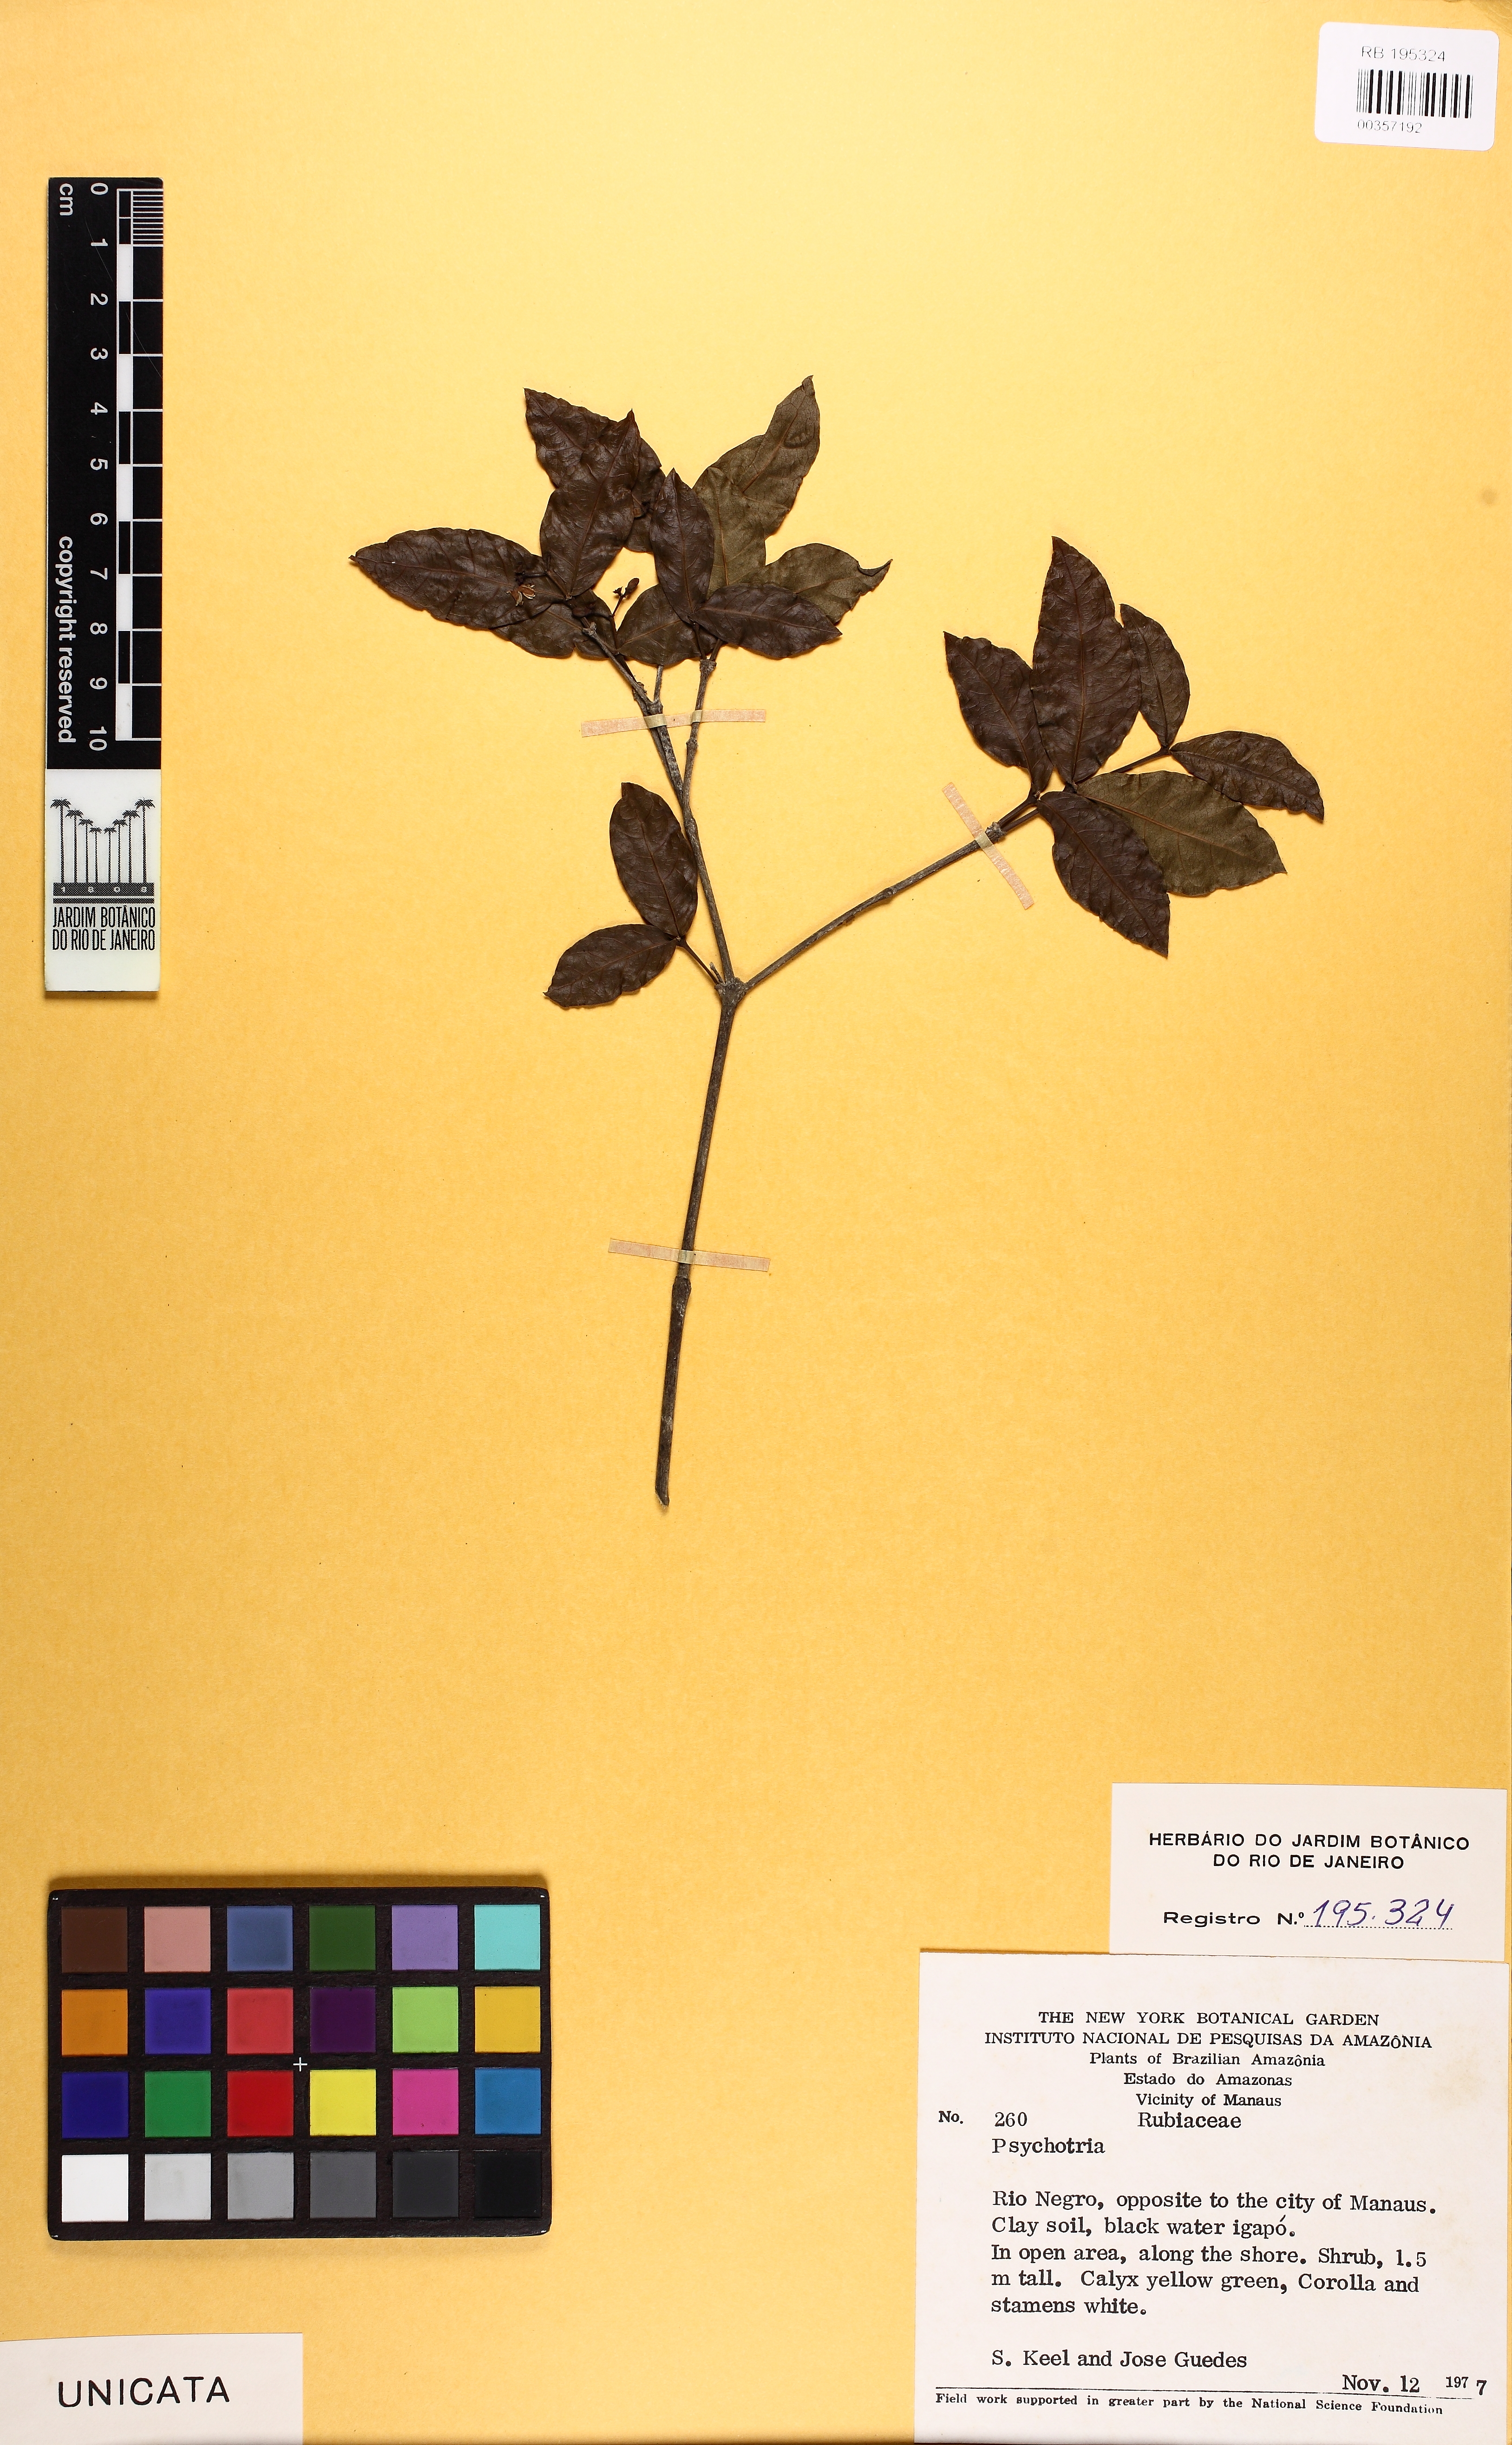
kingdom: Plantae
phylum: Tracheophyta
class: Magnoliopsida
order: Gentianales
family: Rubiaceae
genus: Psychotria
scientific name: Psychotria
